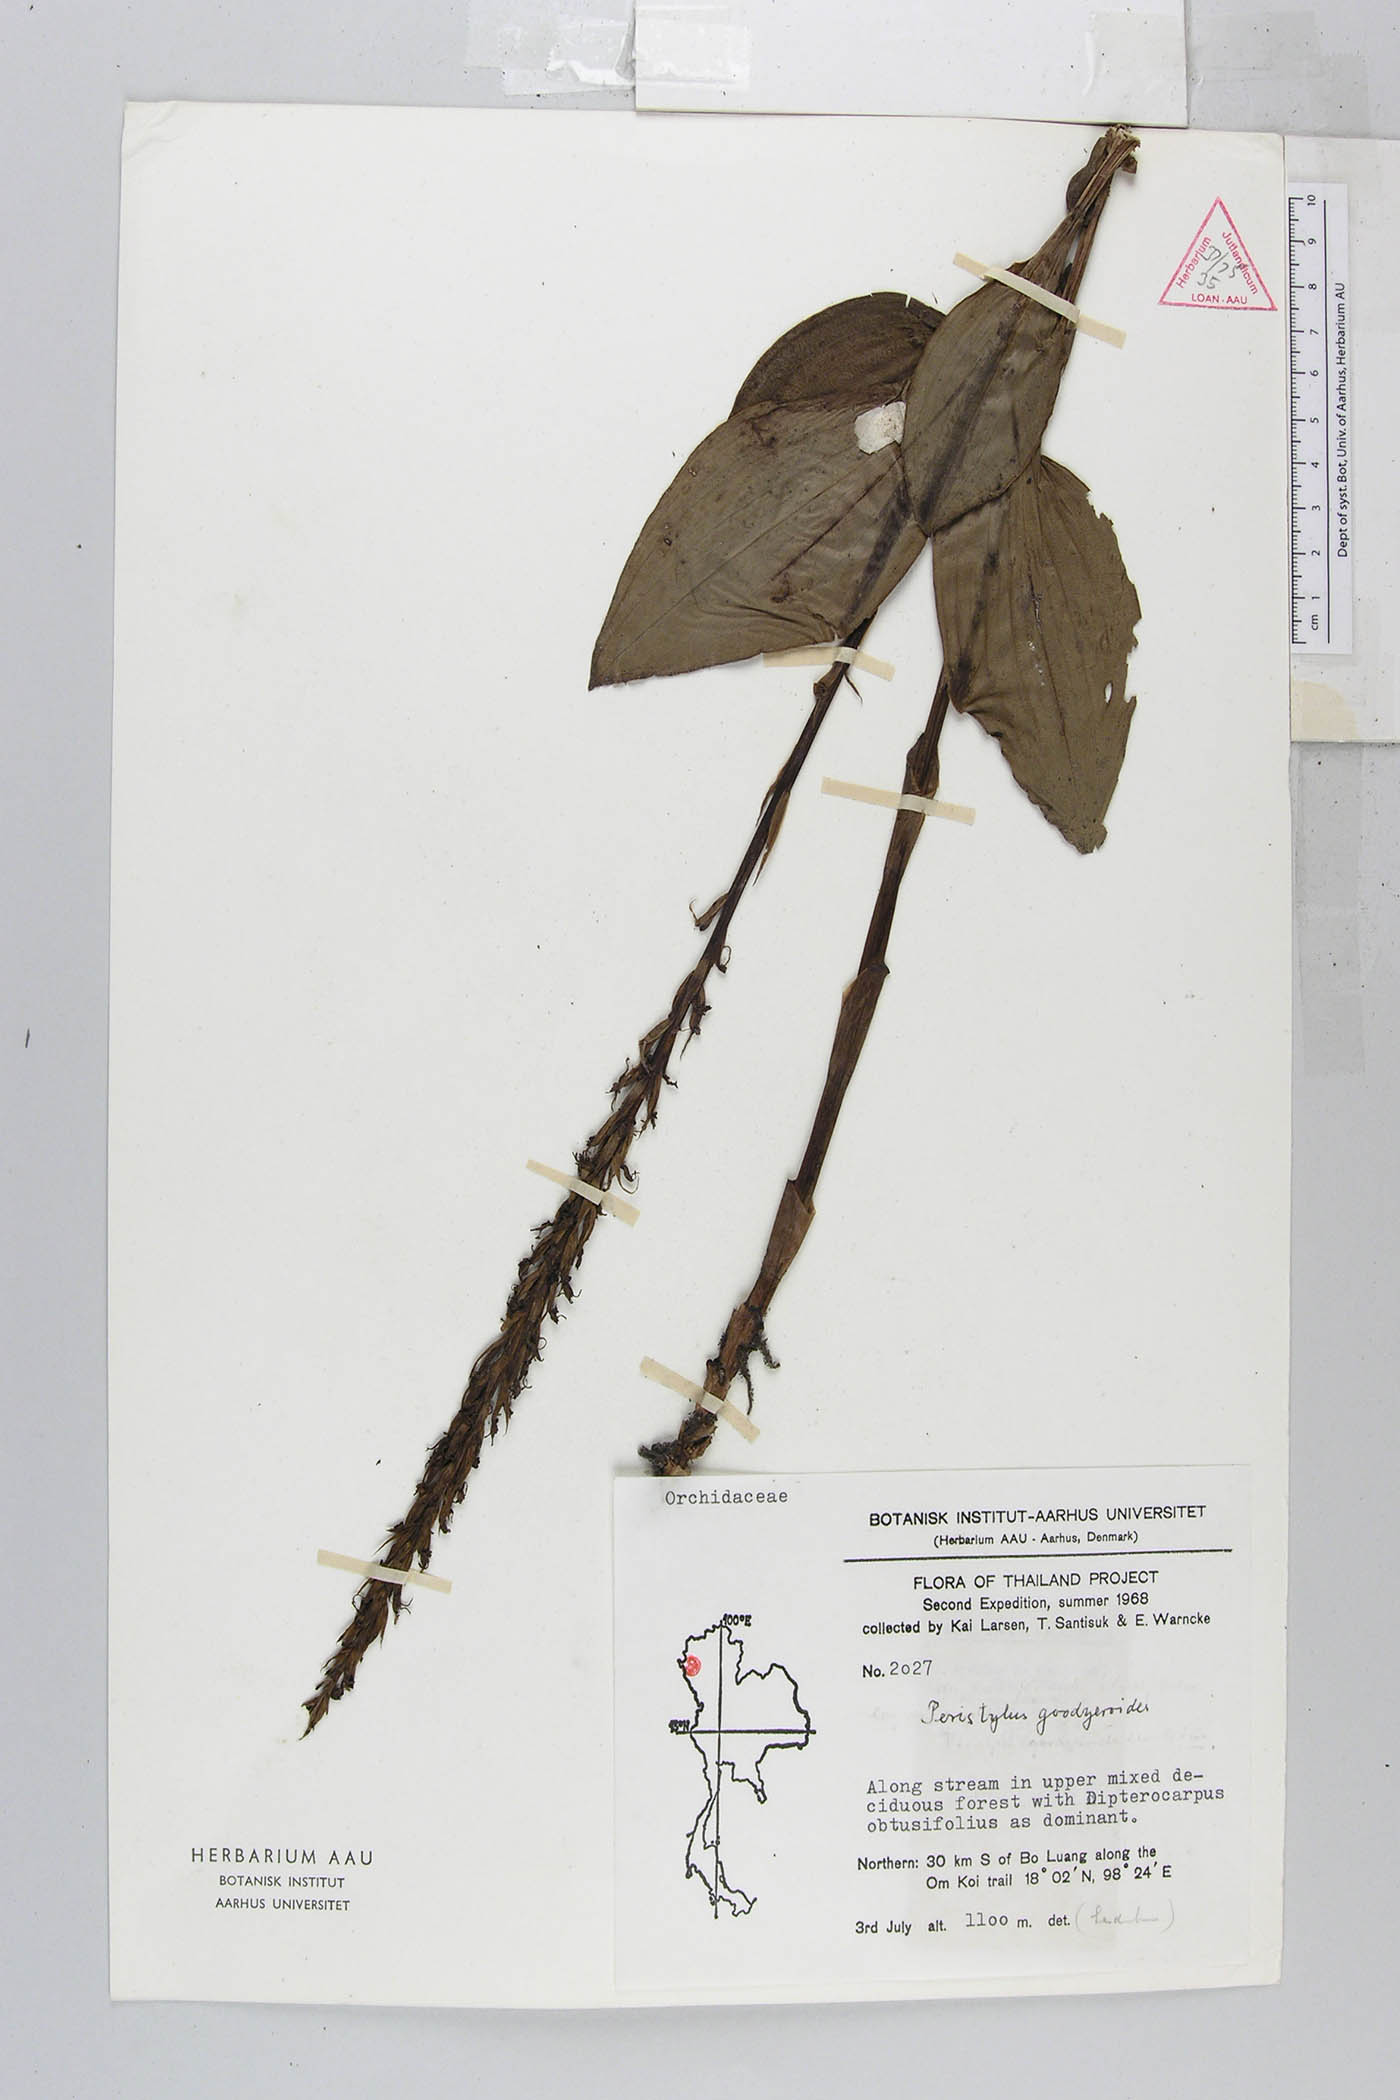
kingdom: Plantae
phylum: Tracheophyta
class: Liliopsida
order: Asparagales
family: Orchidaceae
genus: Peristylus
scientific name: Peristylus goodyeroides
